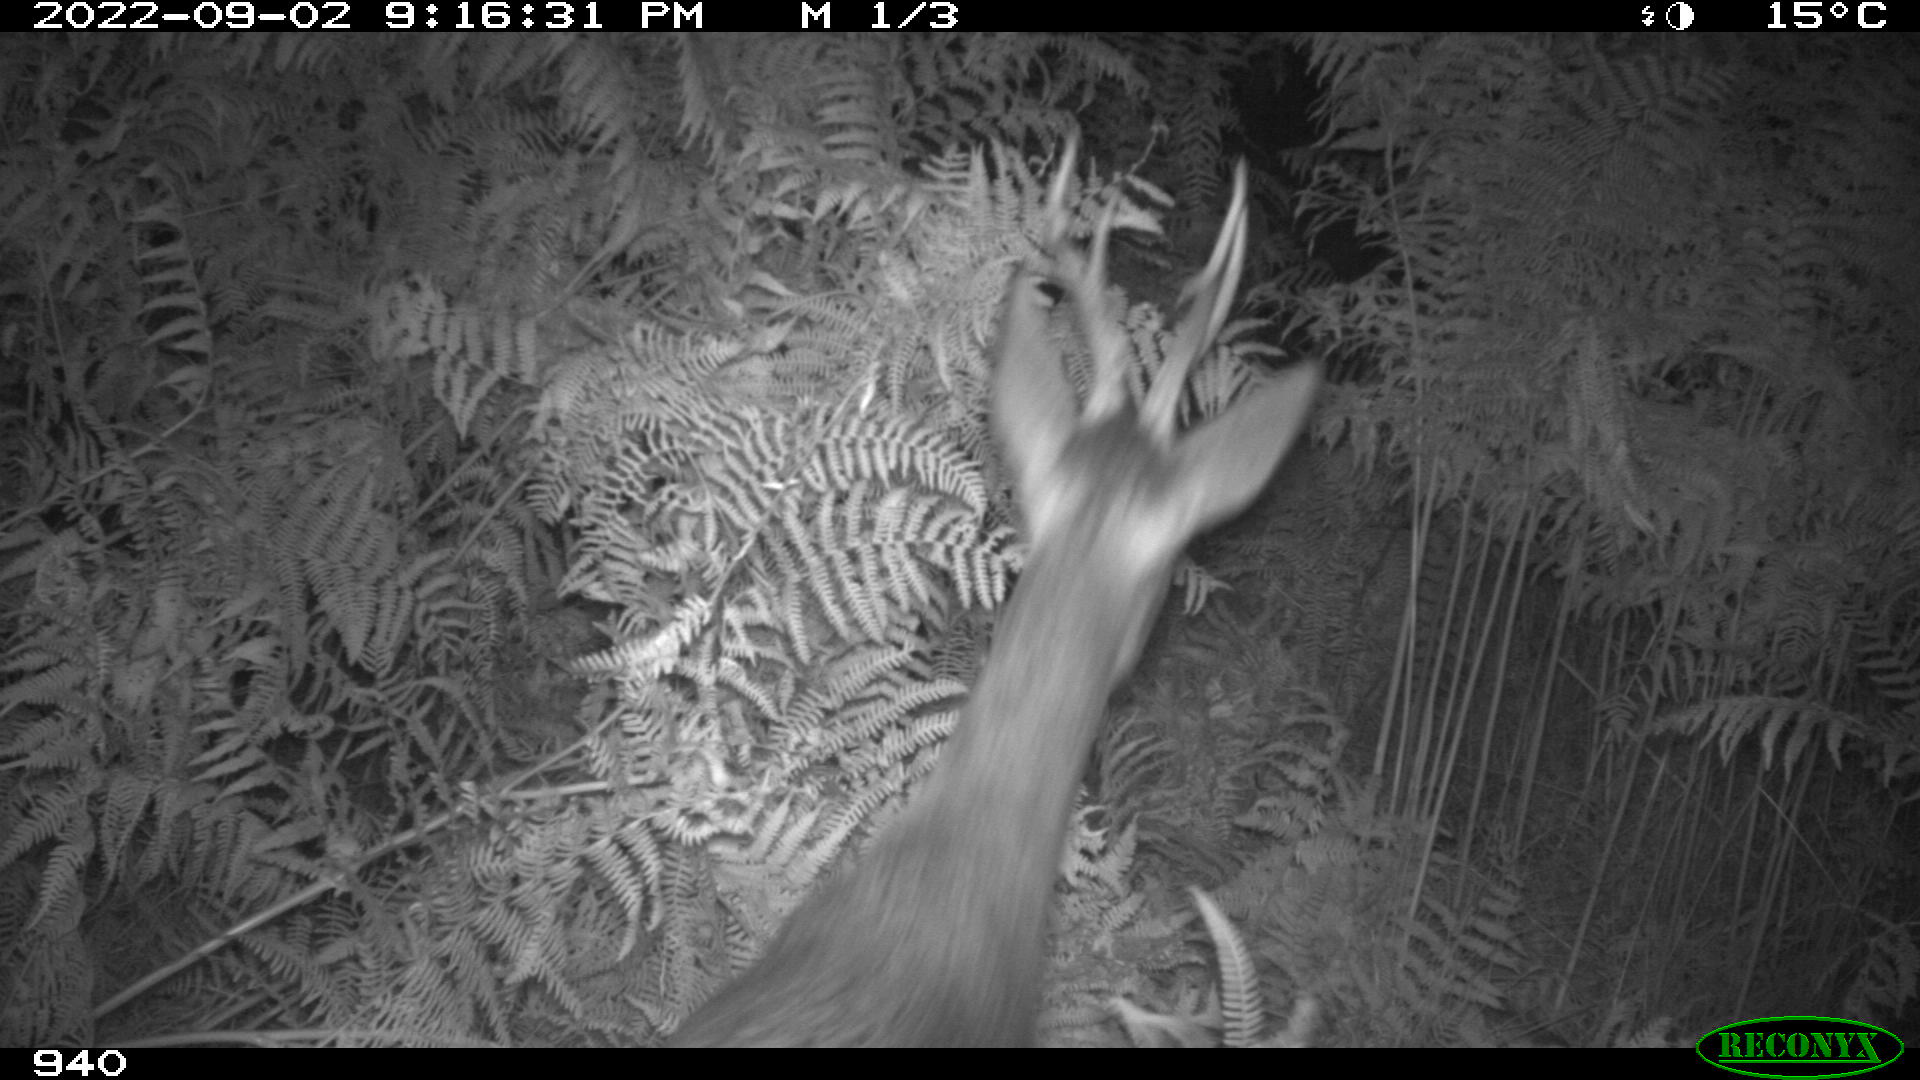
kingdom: Animalia
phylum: Chordata
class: Mammalia
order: Artiodactyla
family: Cervidae
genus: Capreolus
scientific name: Capreolus capreolus
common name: Western roe deer
